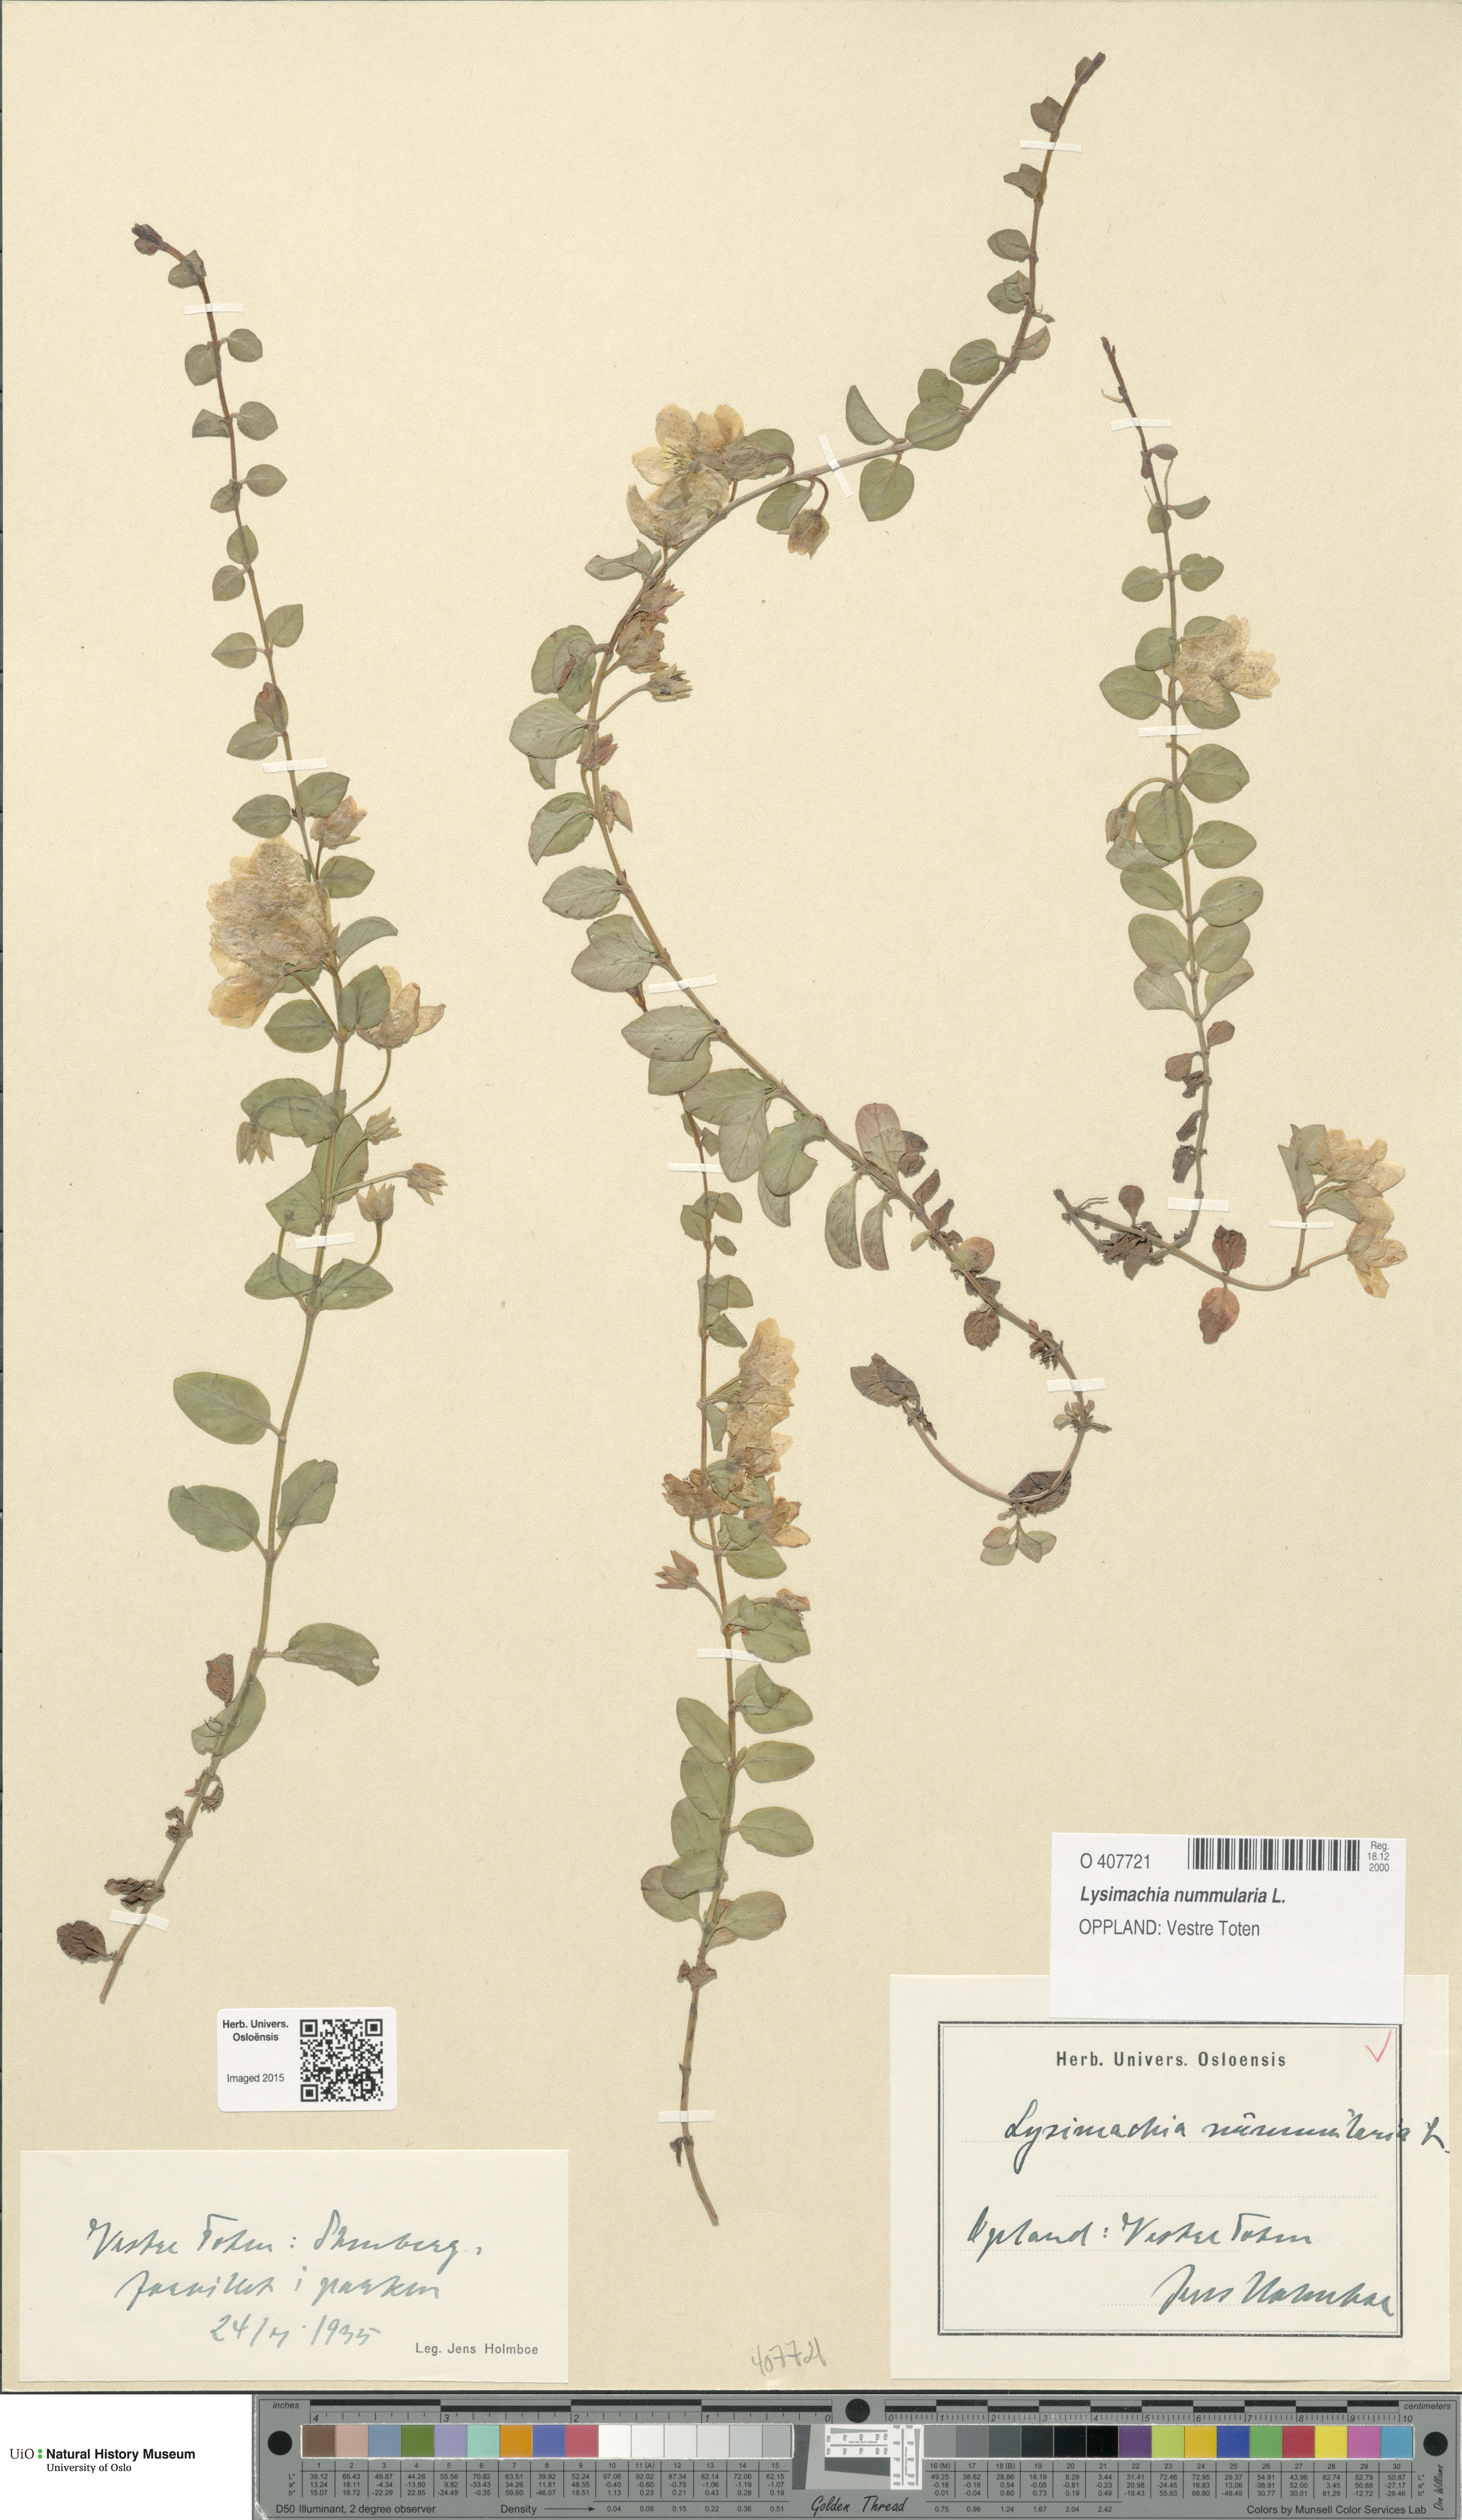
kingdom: Plantae
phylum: Tracheophyta
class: Magnoliopsida
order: Ericales
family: Primulaceae
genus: Lysimachia
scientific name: Lysimachia nummularia
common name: Moneywort
